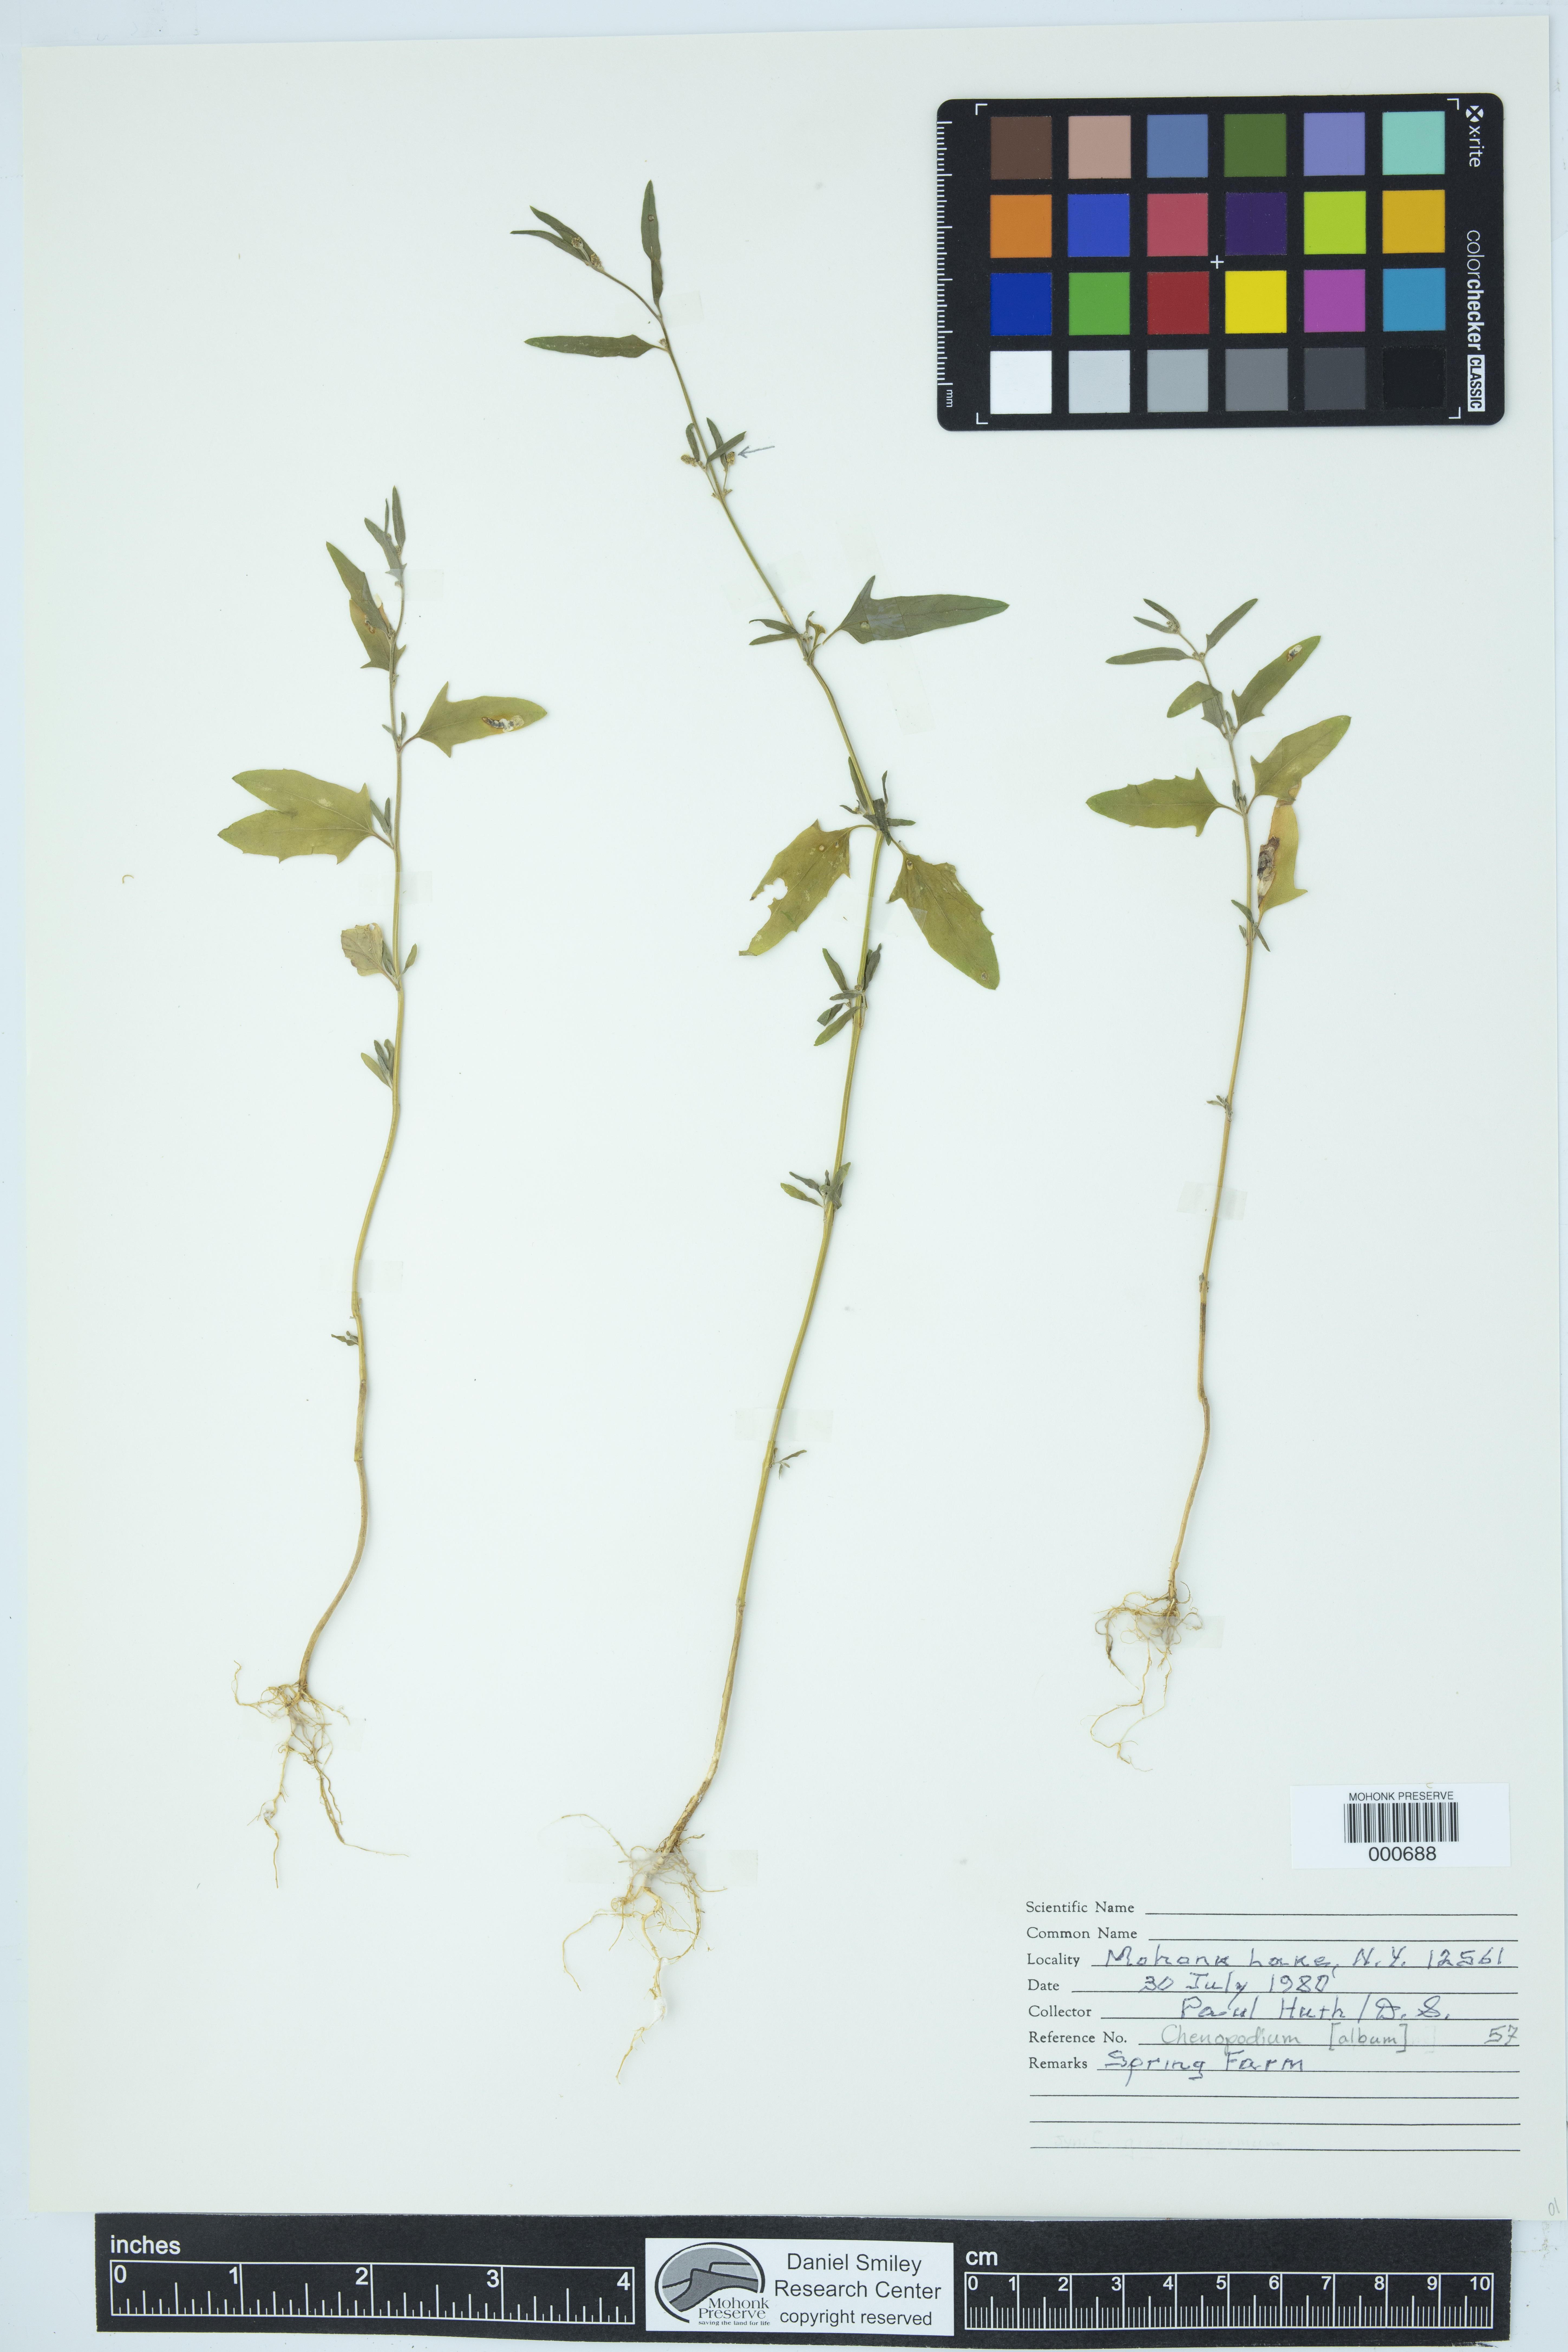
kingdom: Plantae
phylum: Tracheophyta
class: Magnoliopsida
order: Caryophyllales
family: Amaranthaceae
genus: Chenopodium
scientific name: Chenopodium album
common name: Fat-hen
